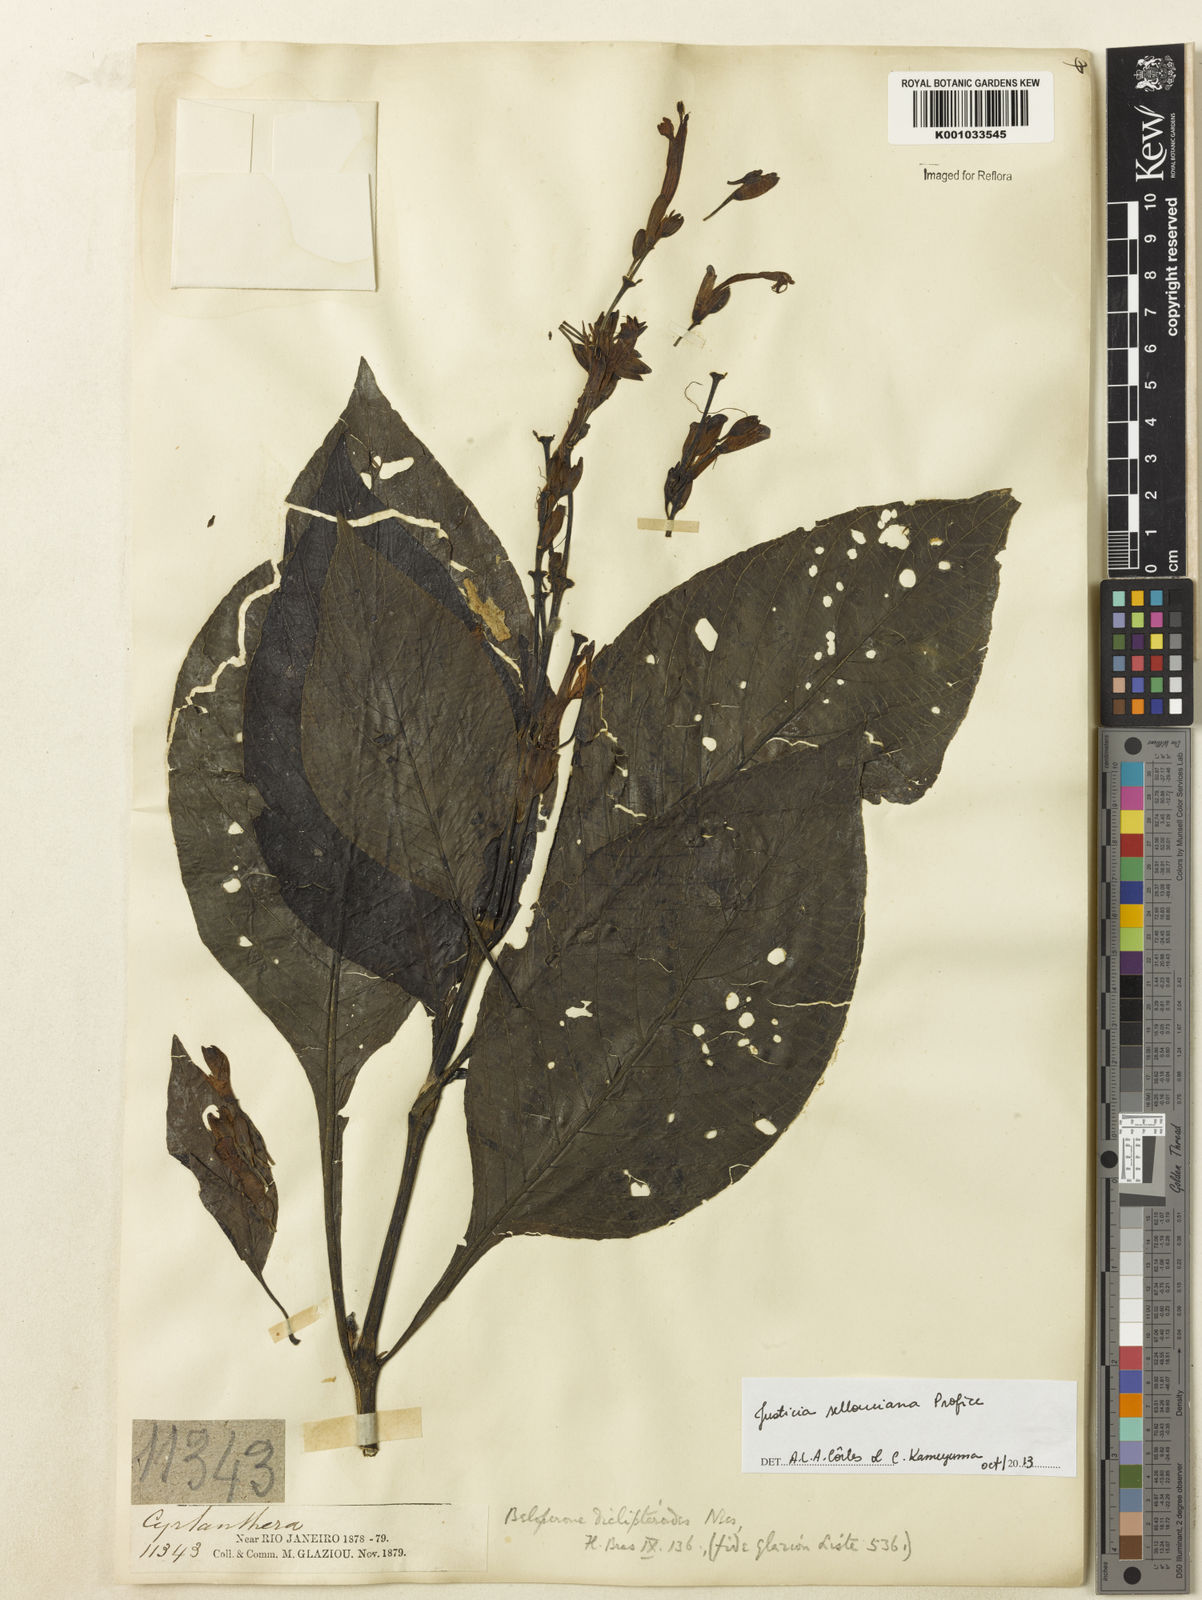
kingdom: Plantae
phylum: Tracheophyta
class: Magnoliopsida
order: Lamiales
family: Acanthaceae
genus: Justicia
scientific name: Justicia sellowiana
